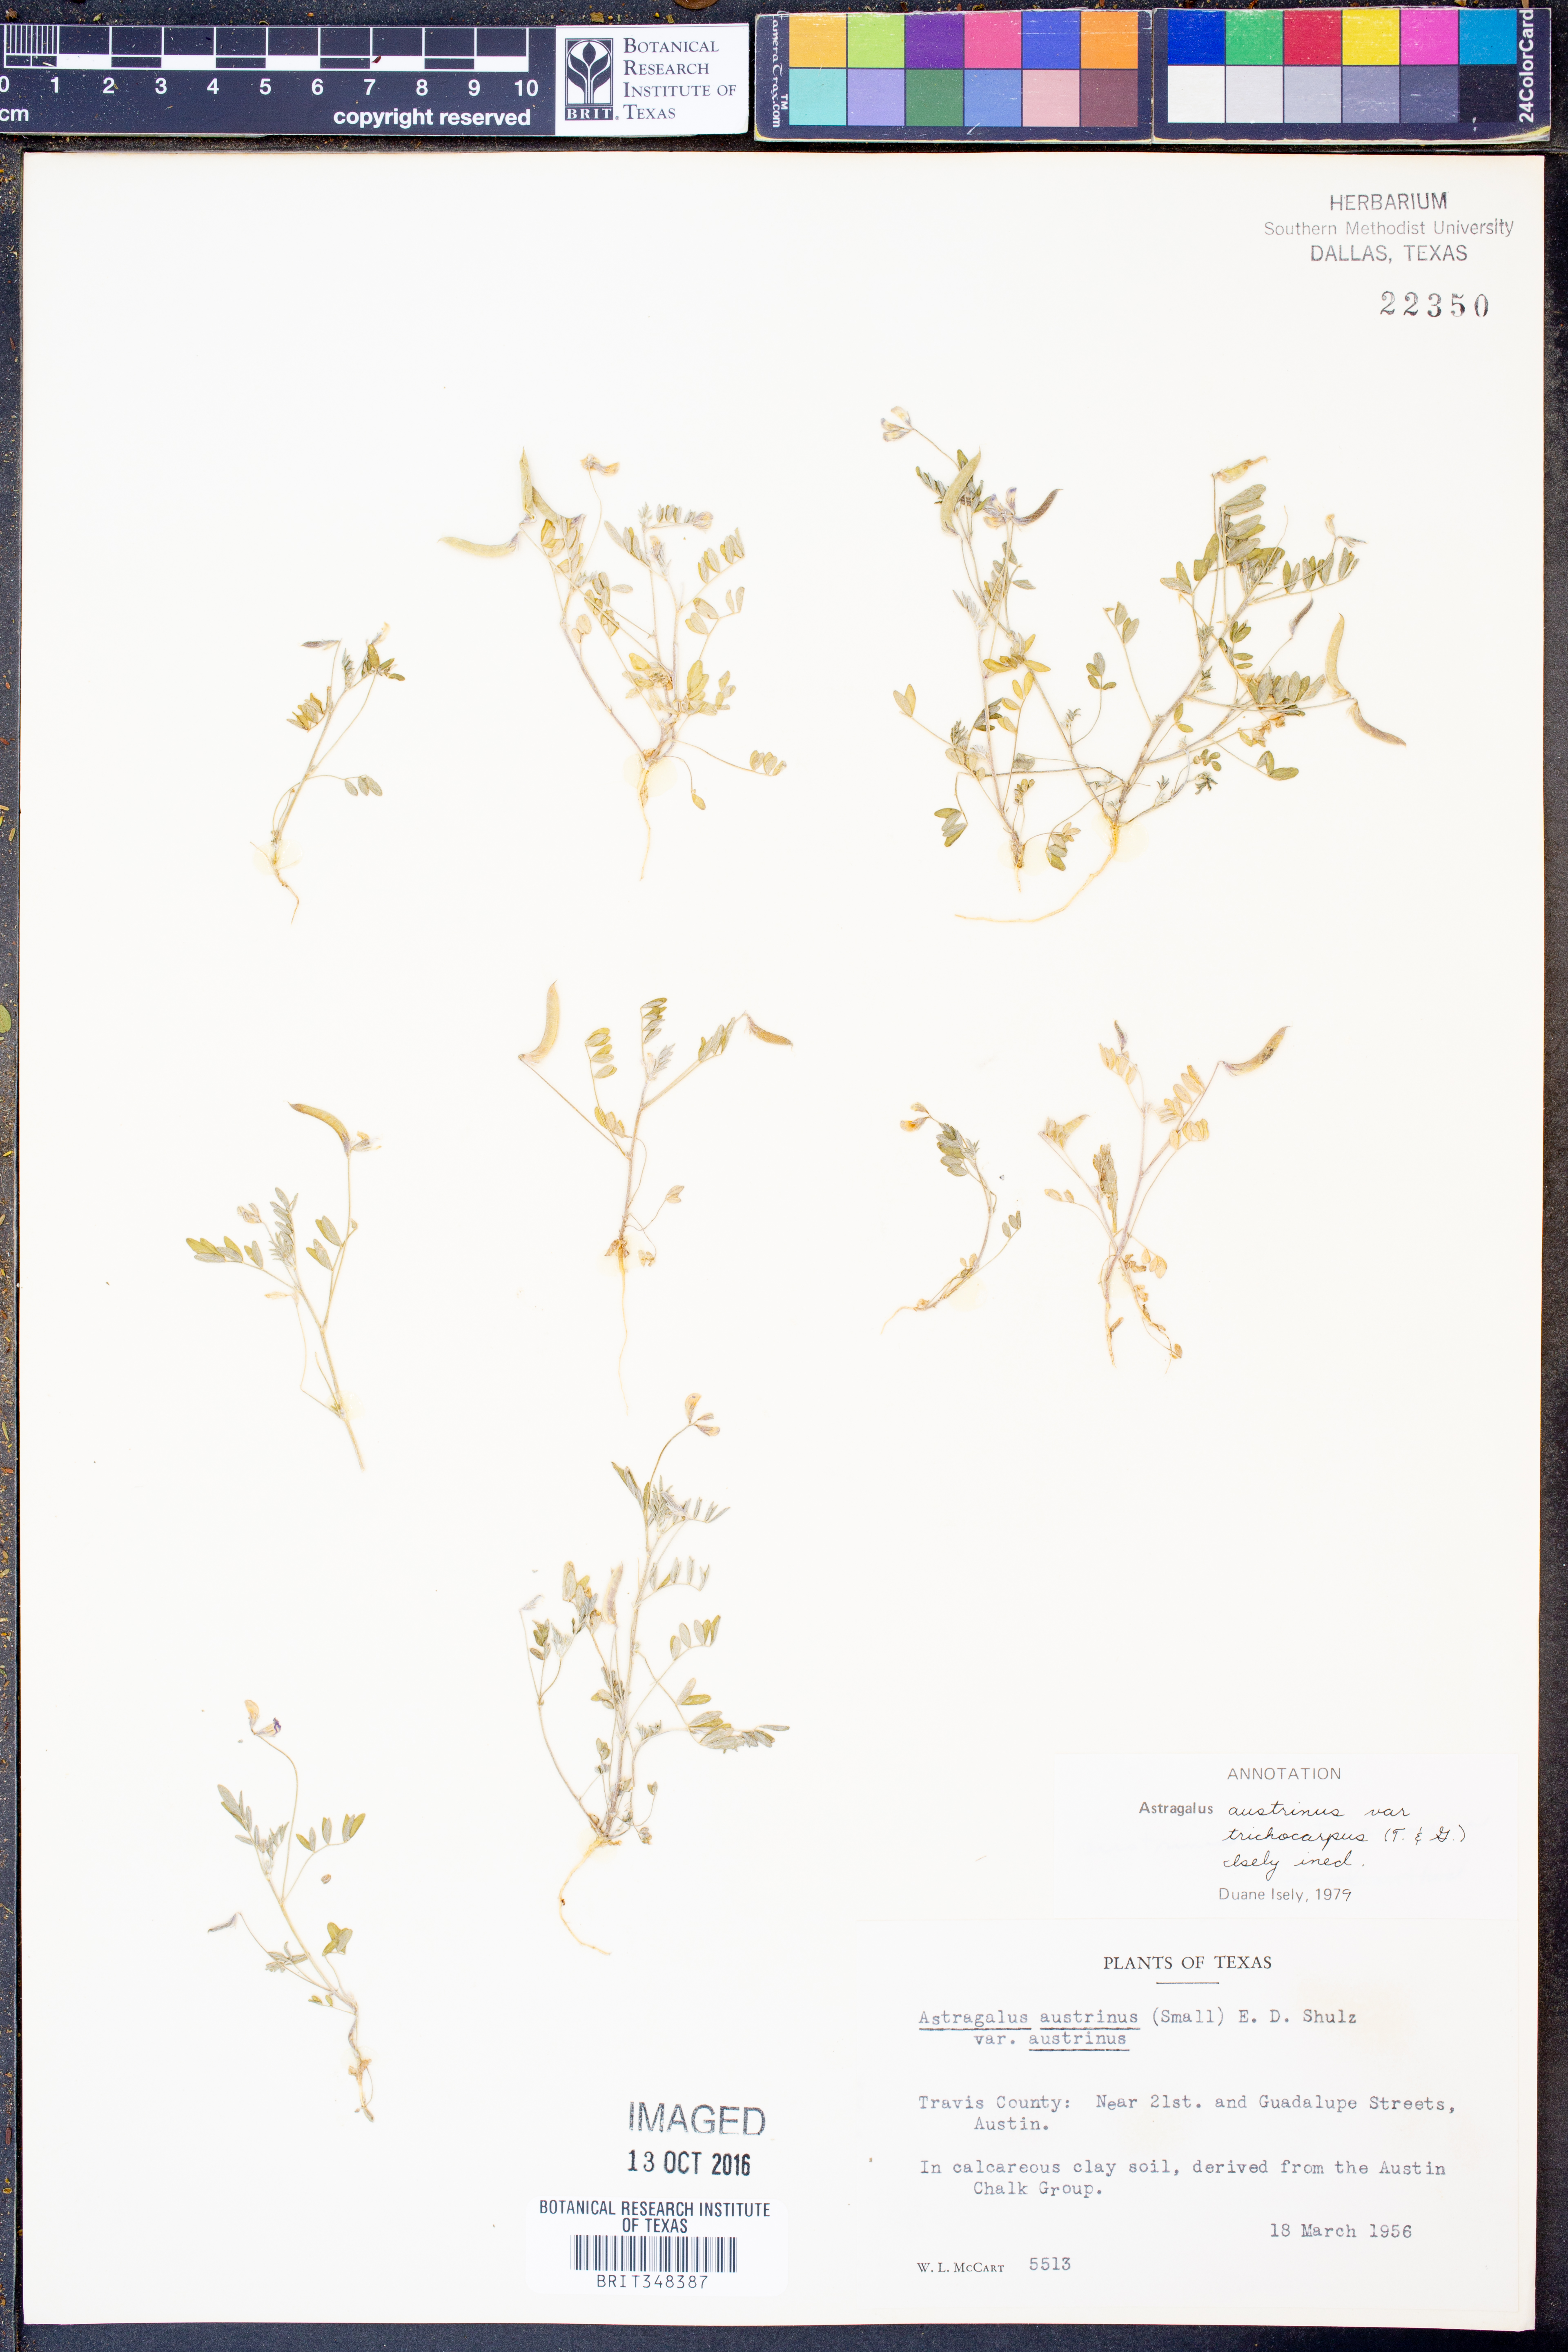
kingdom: Plantae
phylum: Tracheophyta
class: Magnoliopsida
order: Fabales
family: Fabaceae
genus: Astragalus
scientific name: Astragalus nuttallianus
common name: Smallflowered milkvetch
